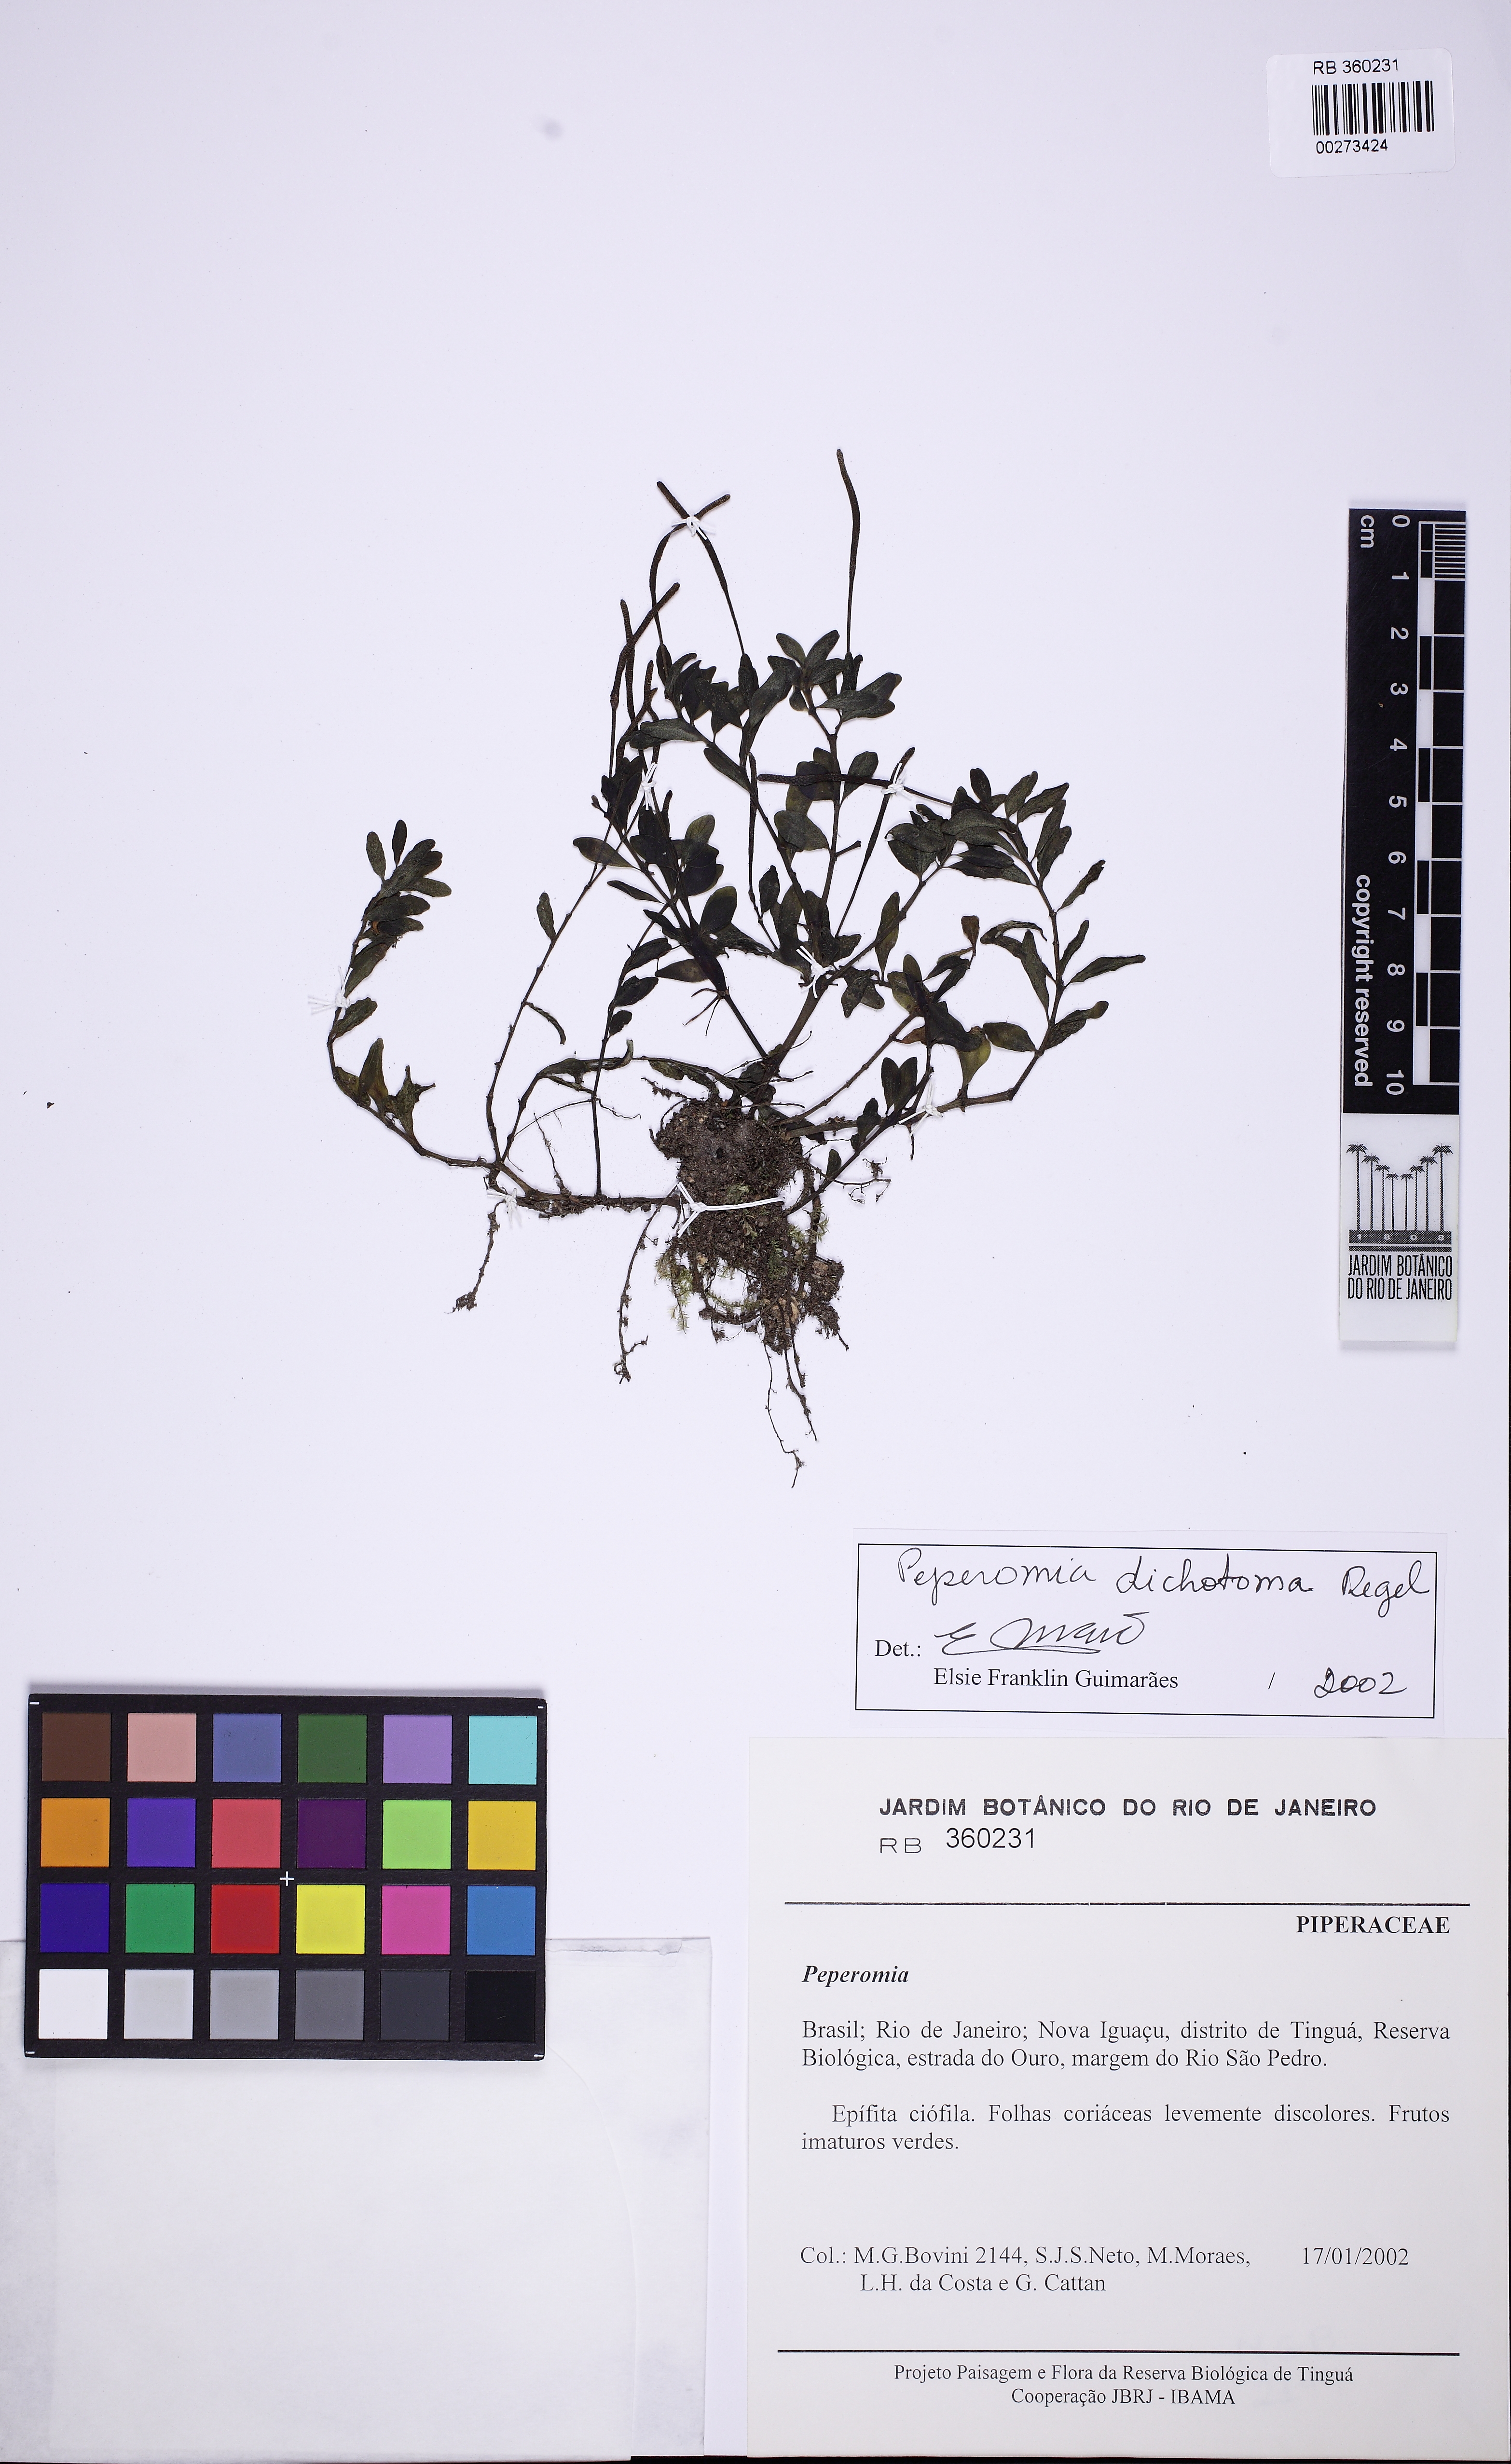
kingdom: Plantae
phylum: Tracheophyta
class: Magnoliopsida
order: Piperales
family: Piperaceae
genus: Peperomia
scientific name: Peperomia dichotoma
